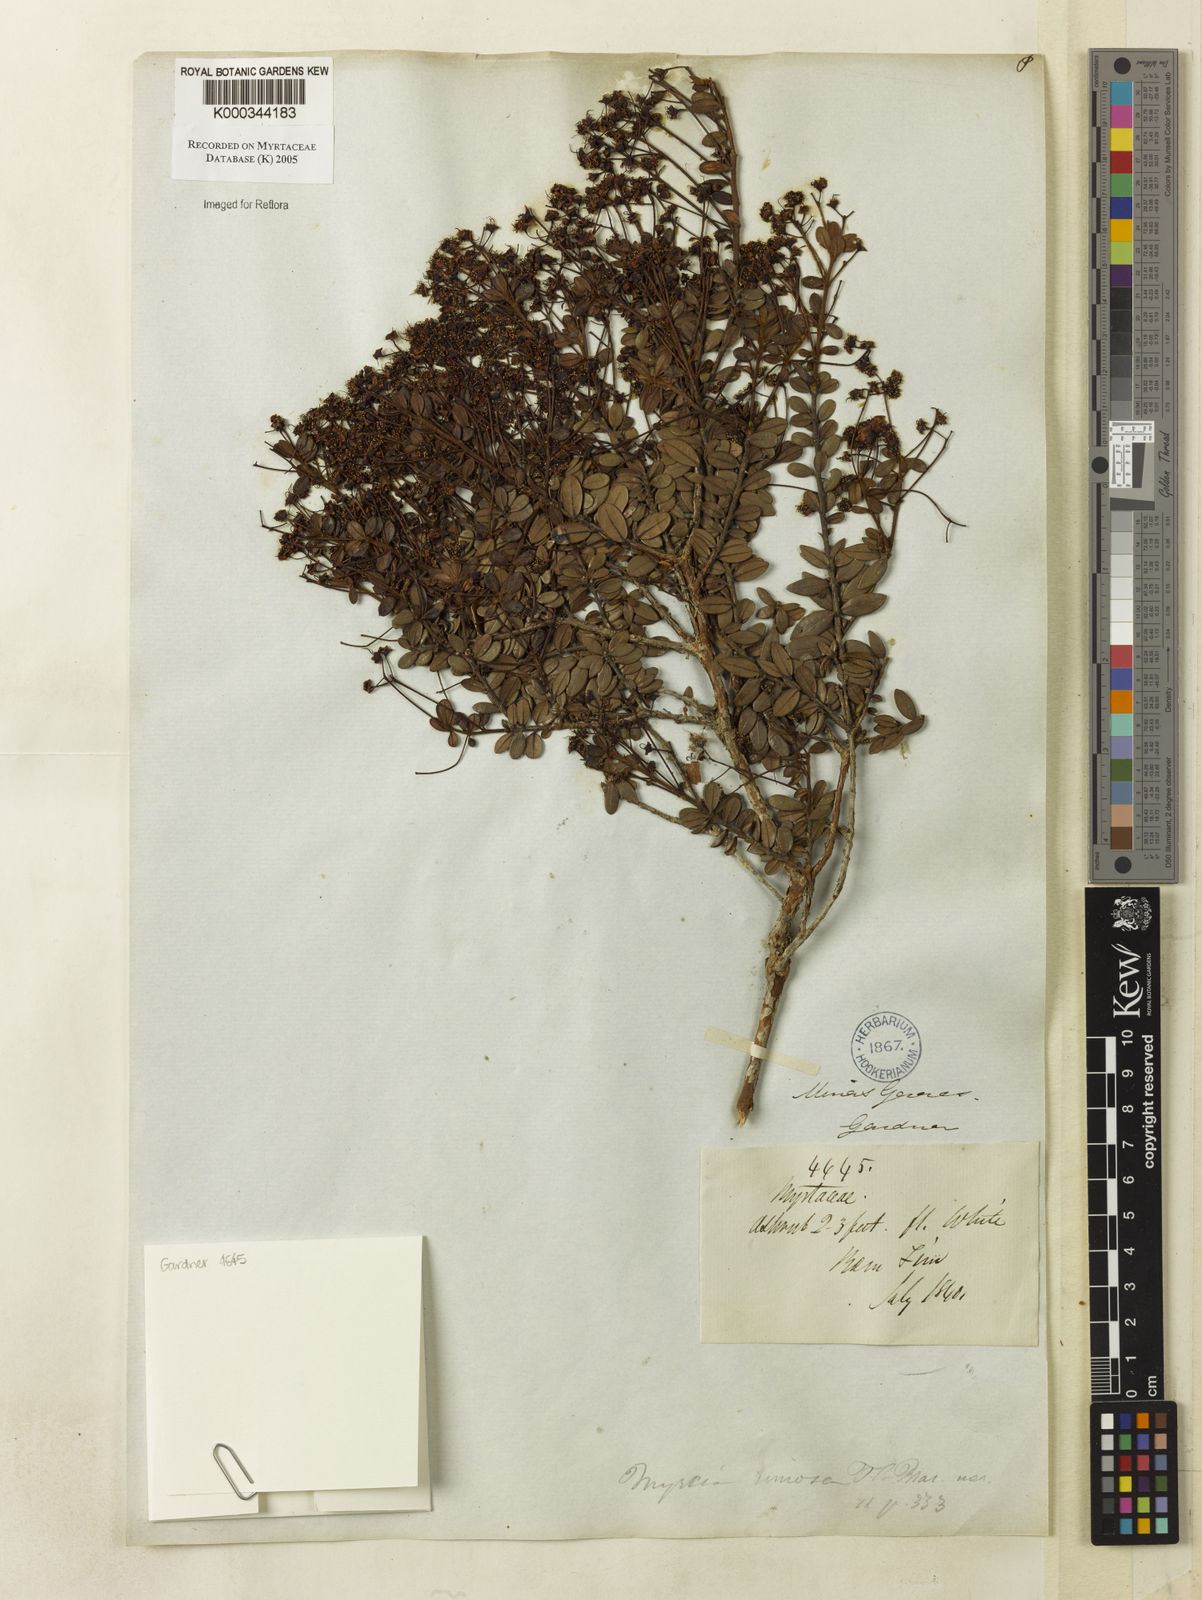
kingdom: Plantae
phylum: Tracheophyta
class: Magnoliopsida
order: Myrtales
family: Myrtaceae
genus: Myrcia
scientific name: Myrcia rimosa
